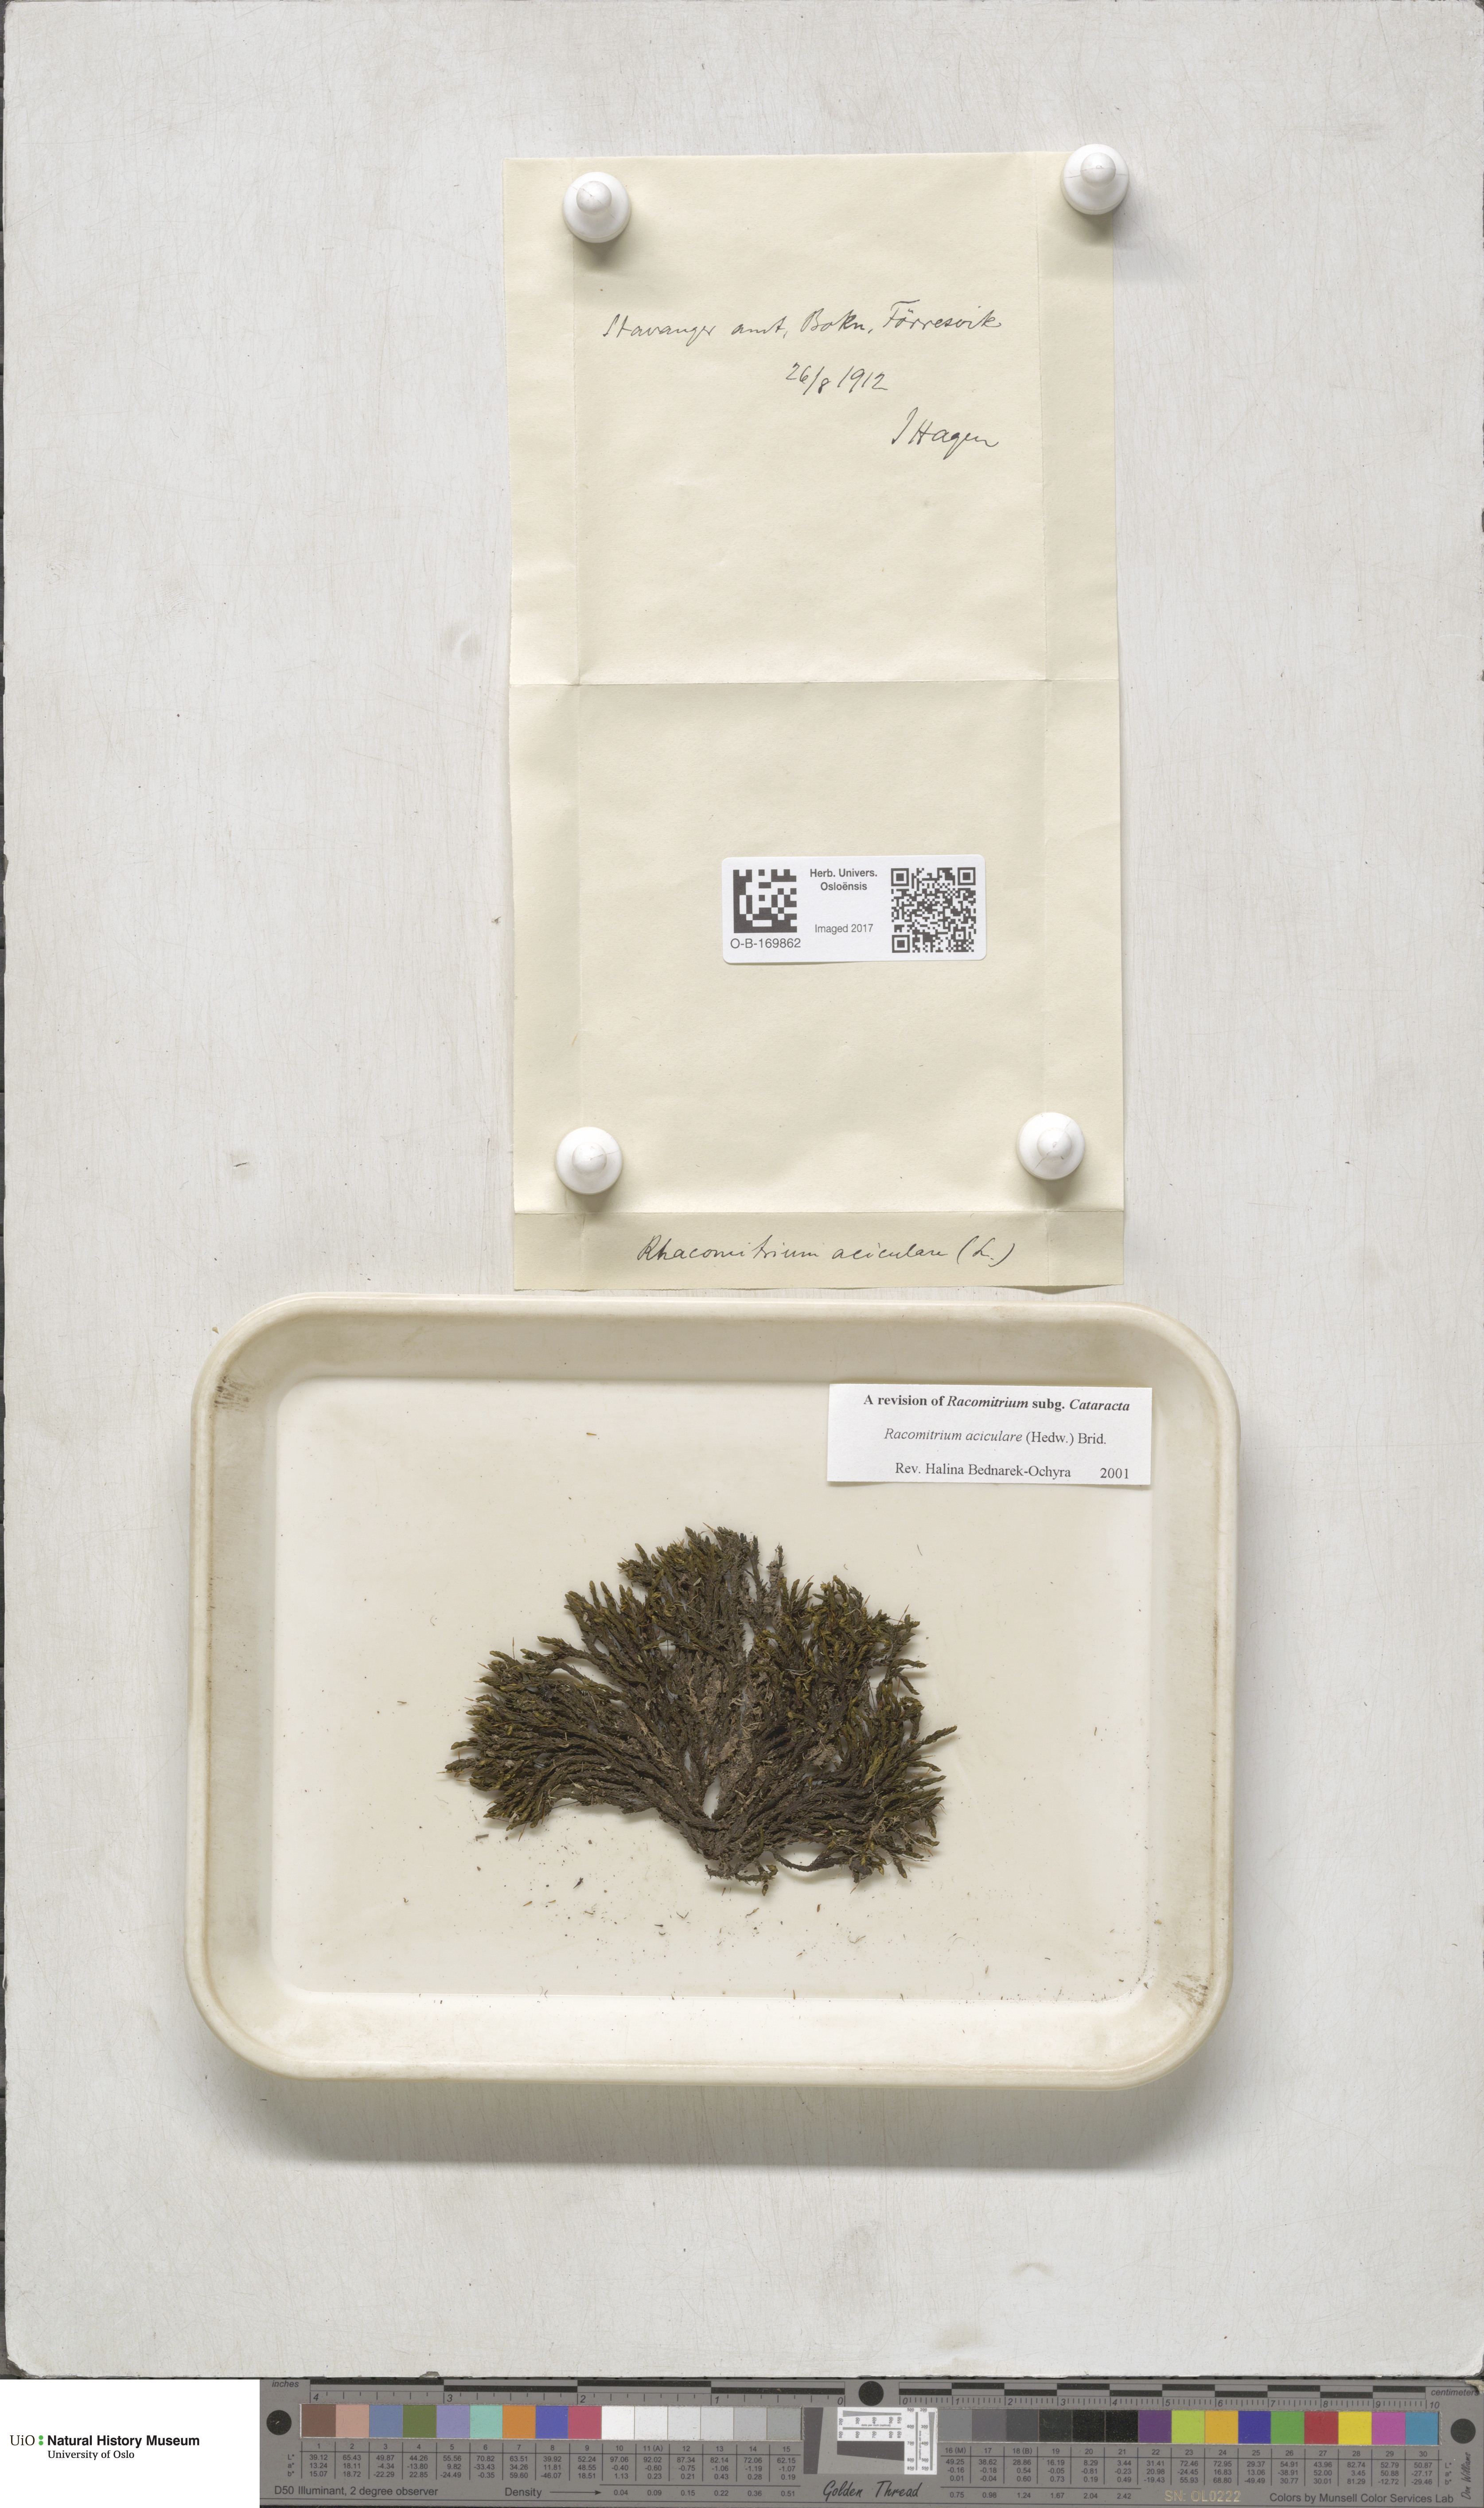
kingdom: Plantae
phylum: Bryophyta
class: Bryopsida
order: Grimmiales
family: Grimmiaceae
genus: Codriophorus
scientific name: Codriophorus acicularis
